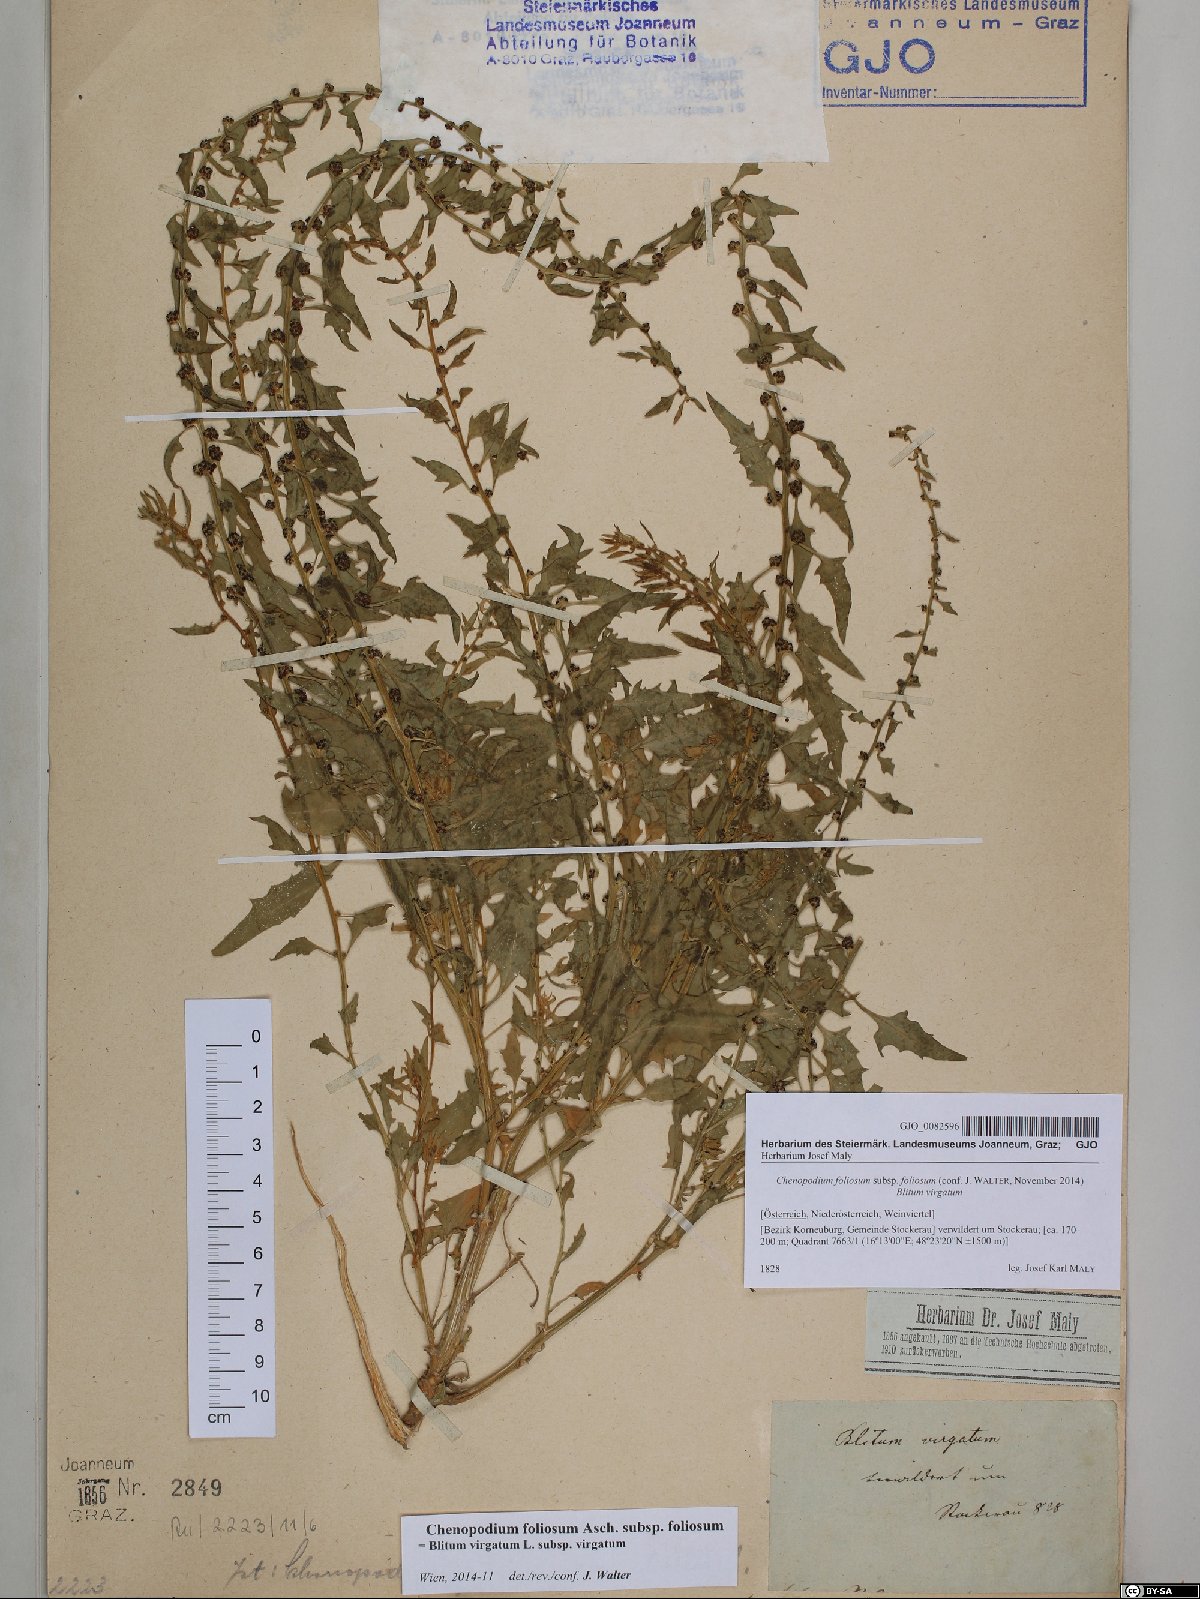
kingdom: Plantae
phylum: Tracheophyta
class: Magnoliopsida
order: Caryophyllales
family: Amaranthaceae
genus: Blitum
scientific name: Blitum virgatum
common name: Strawberry goosefoot
